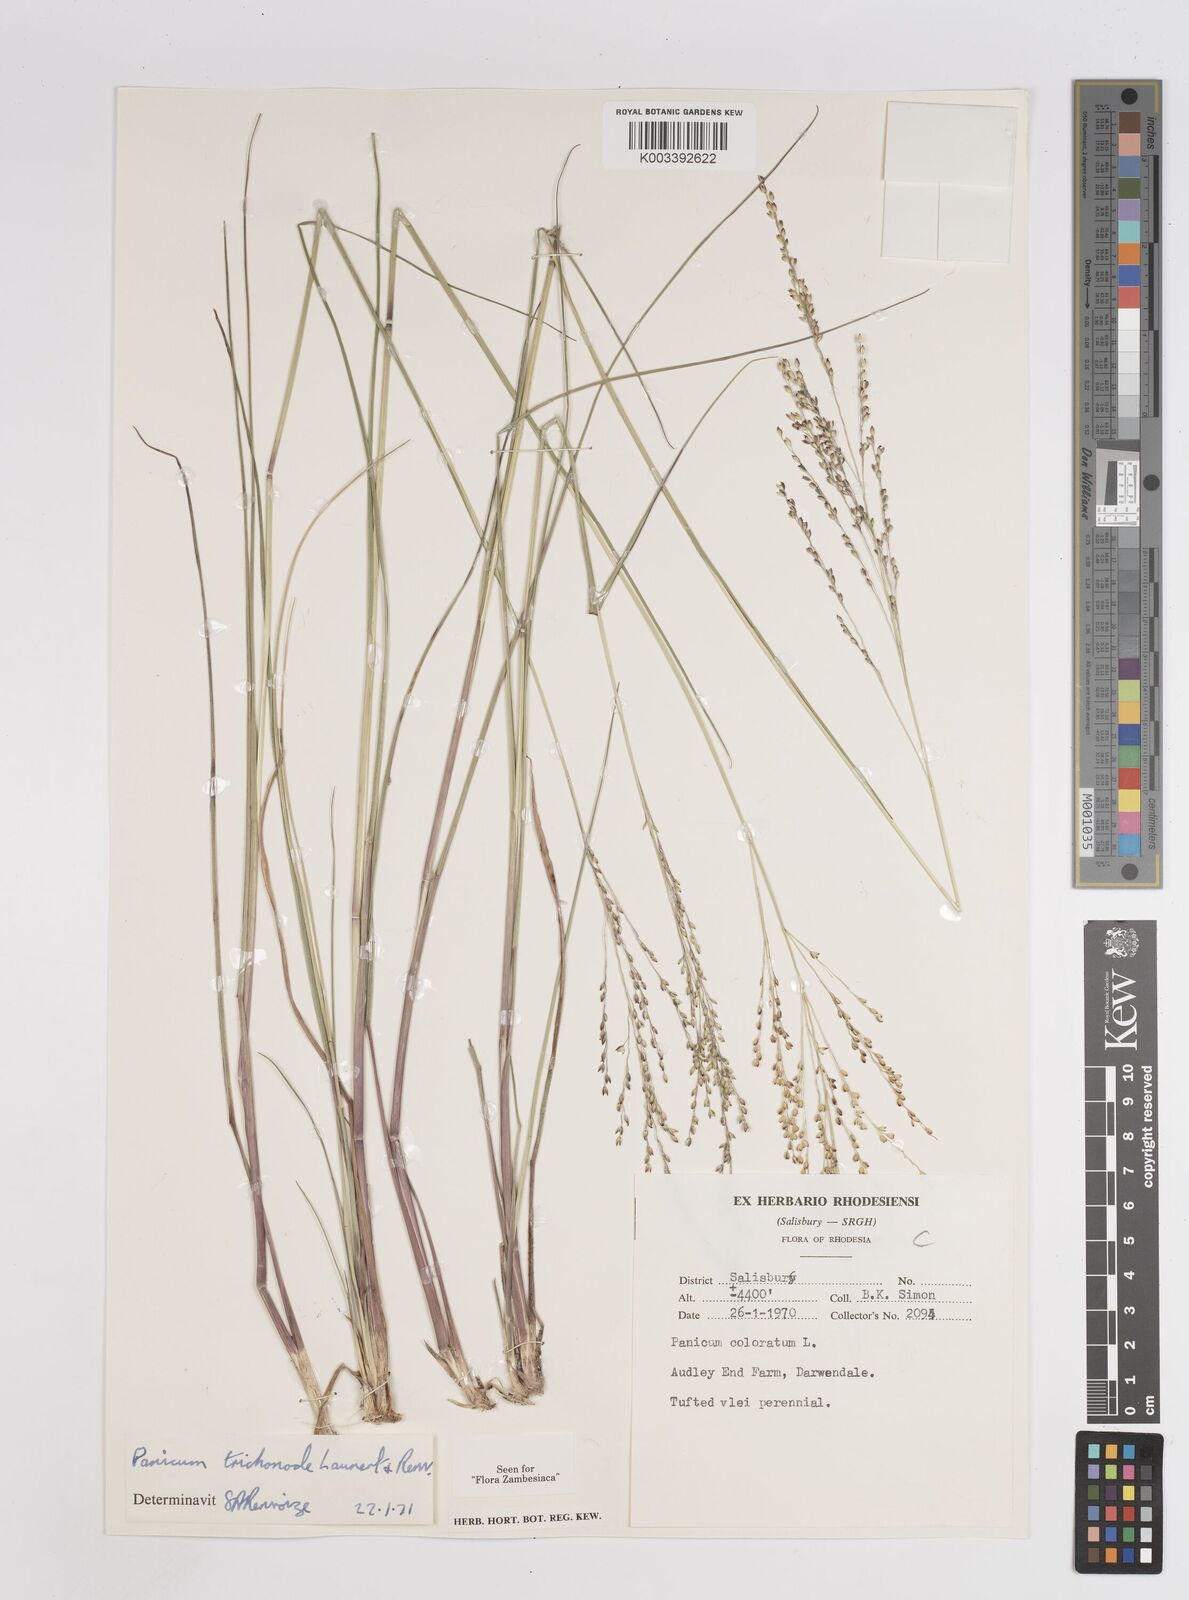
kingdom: Plantae
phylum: Tracheophyta
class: Liliopsida
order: Poales
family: Poaceae
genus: Panicum
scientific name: Panicum trichonode
